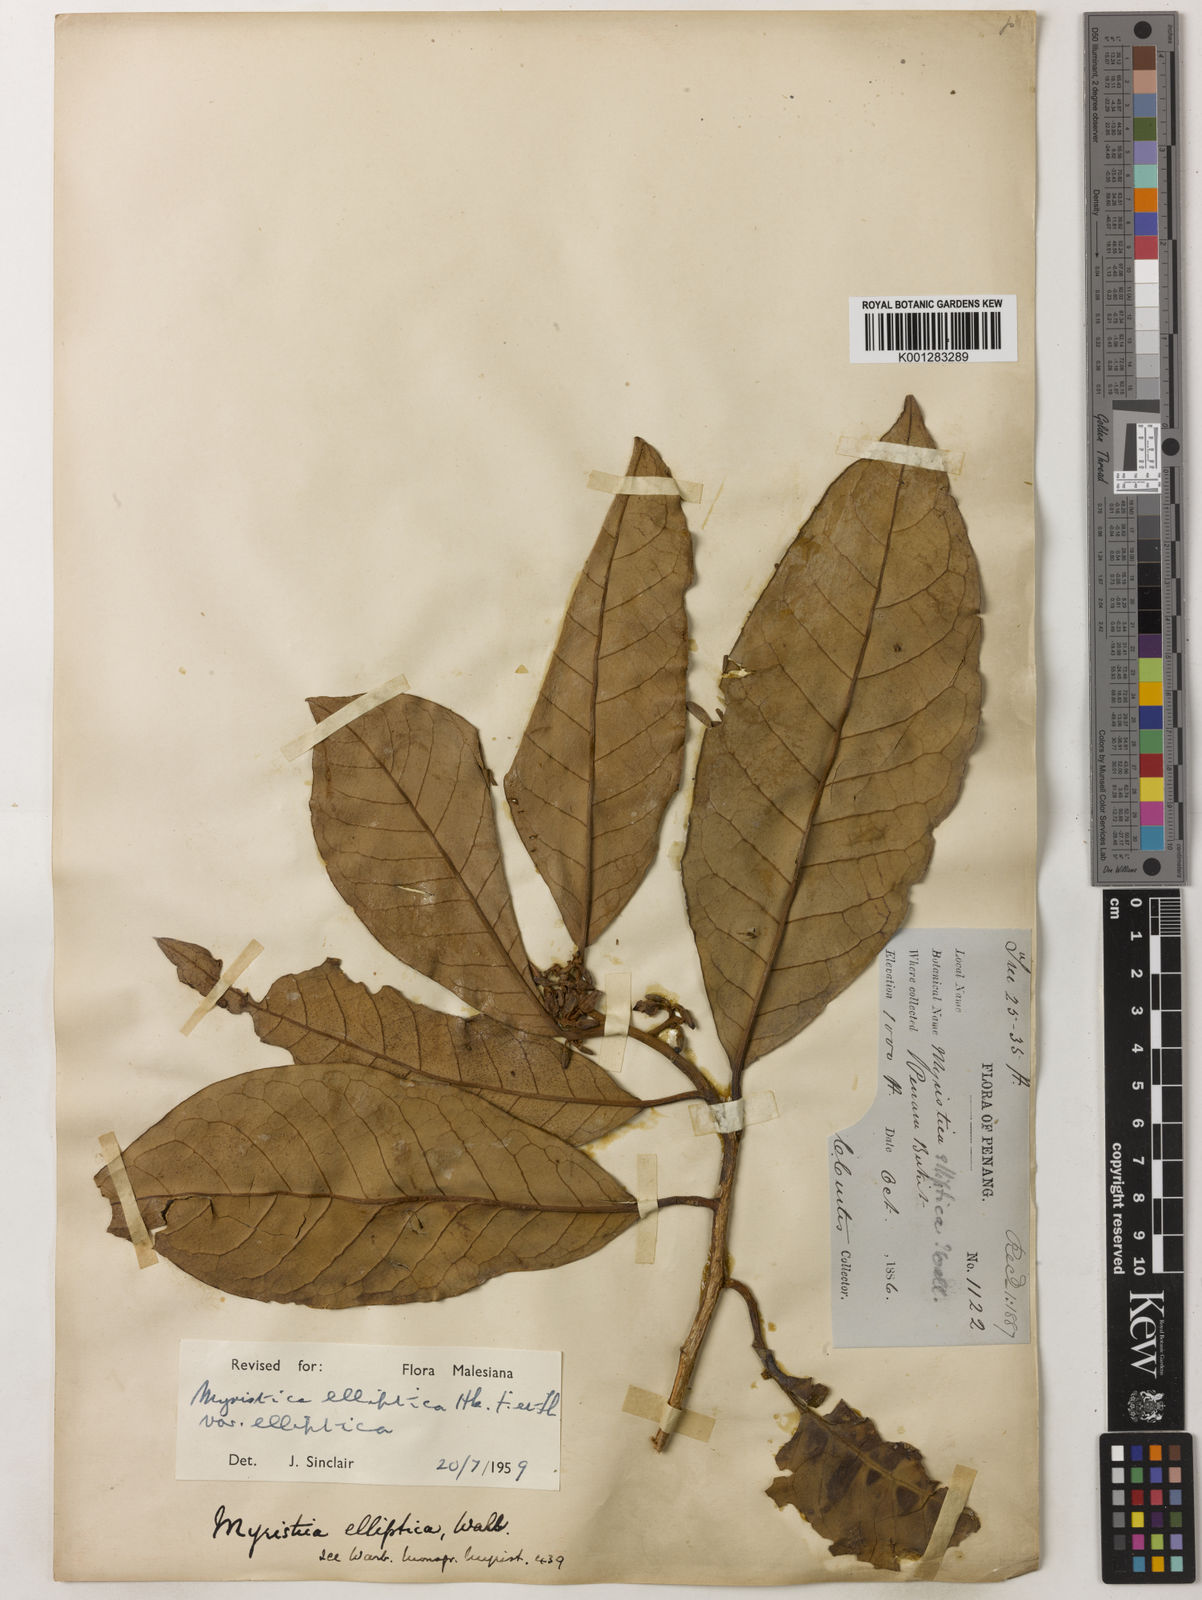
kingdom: Plantae
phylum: Tracheophyta
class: Magnoliopsida
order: Magnoliales
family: Myristicaceae
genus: Myristica
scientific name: Myristica elliptica
